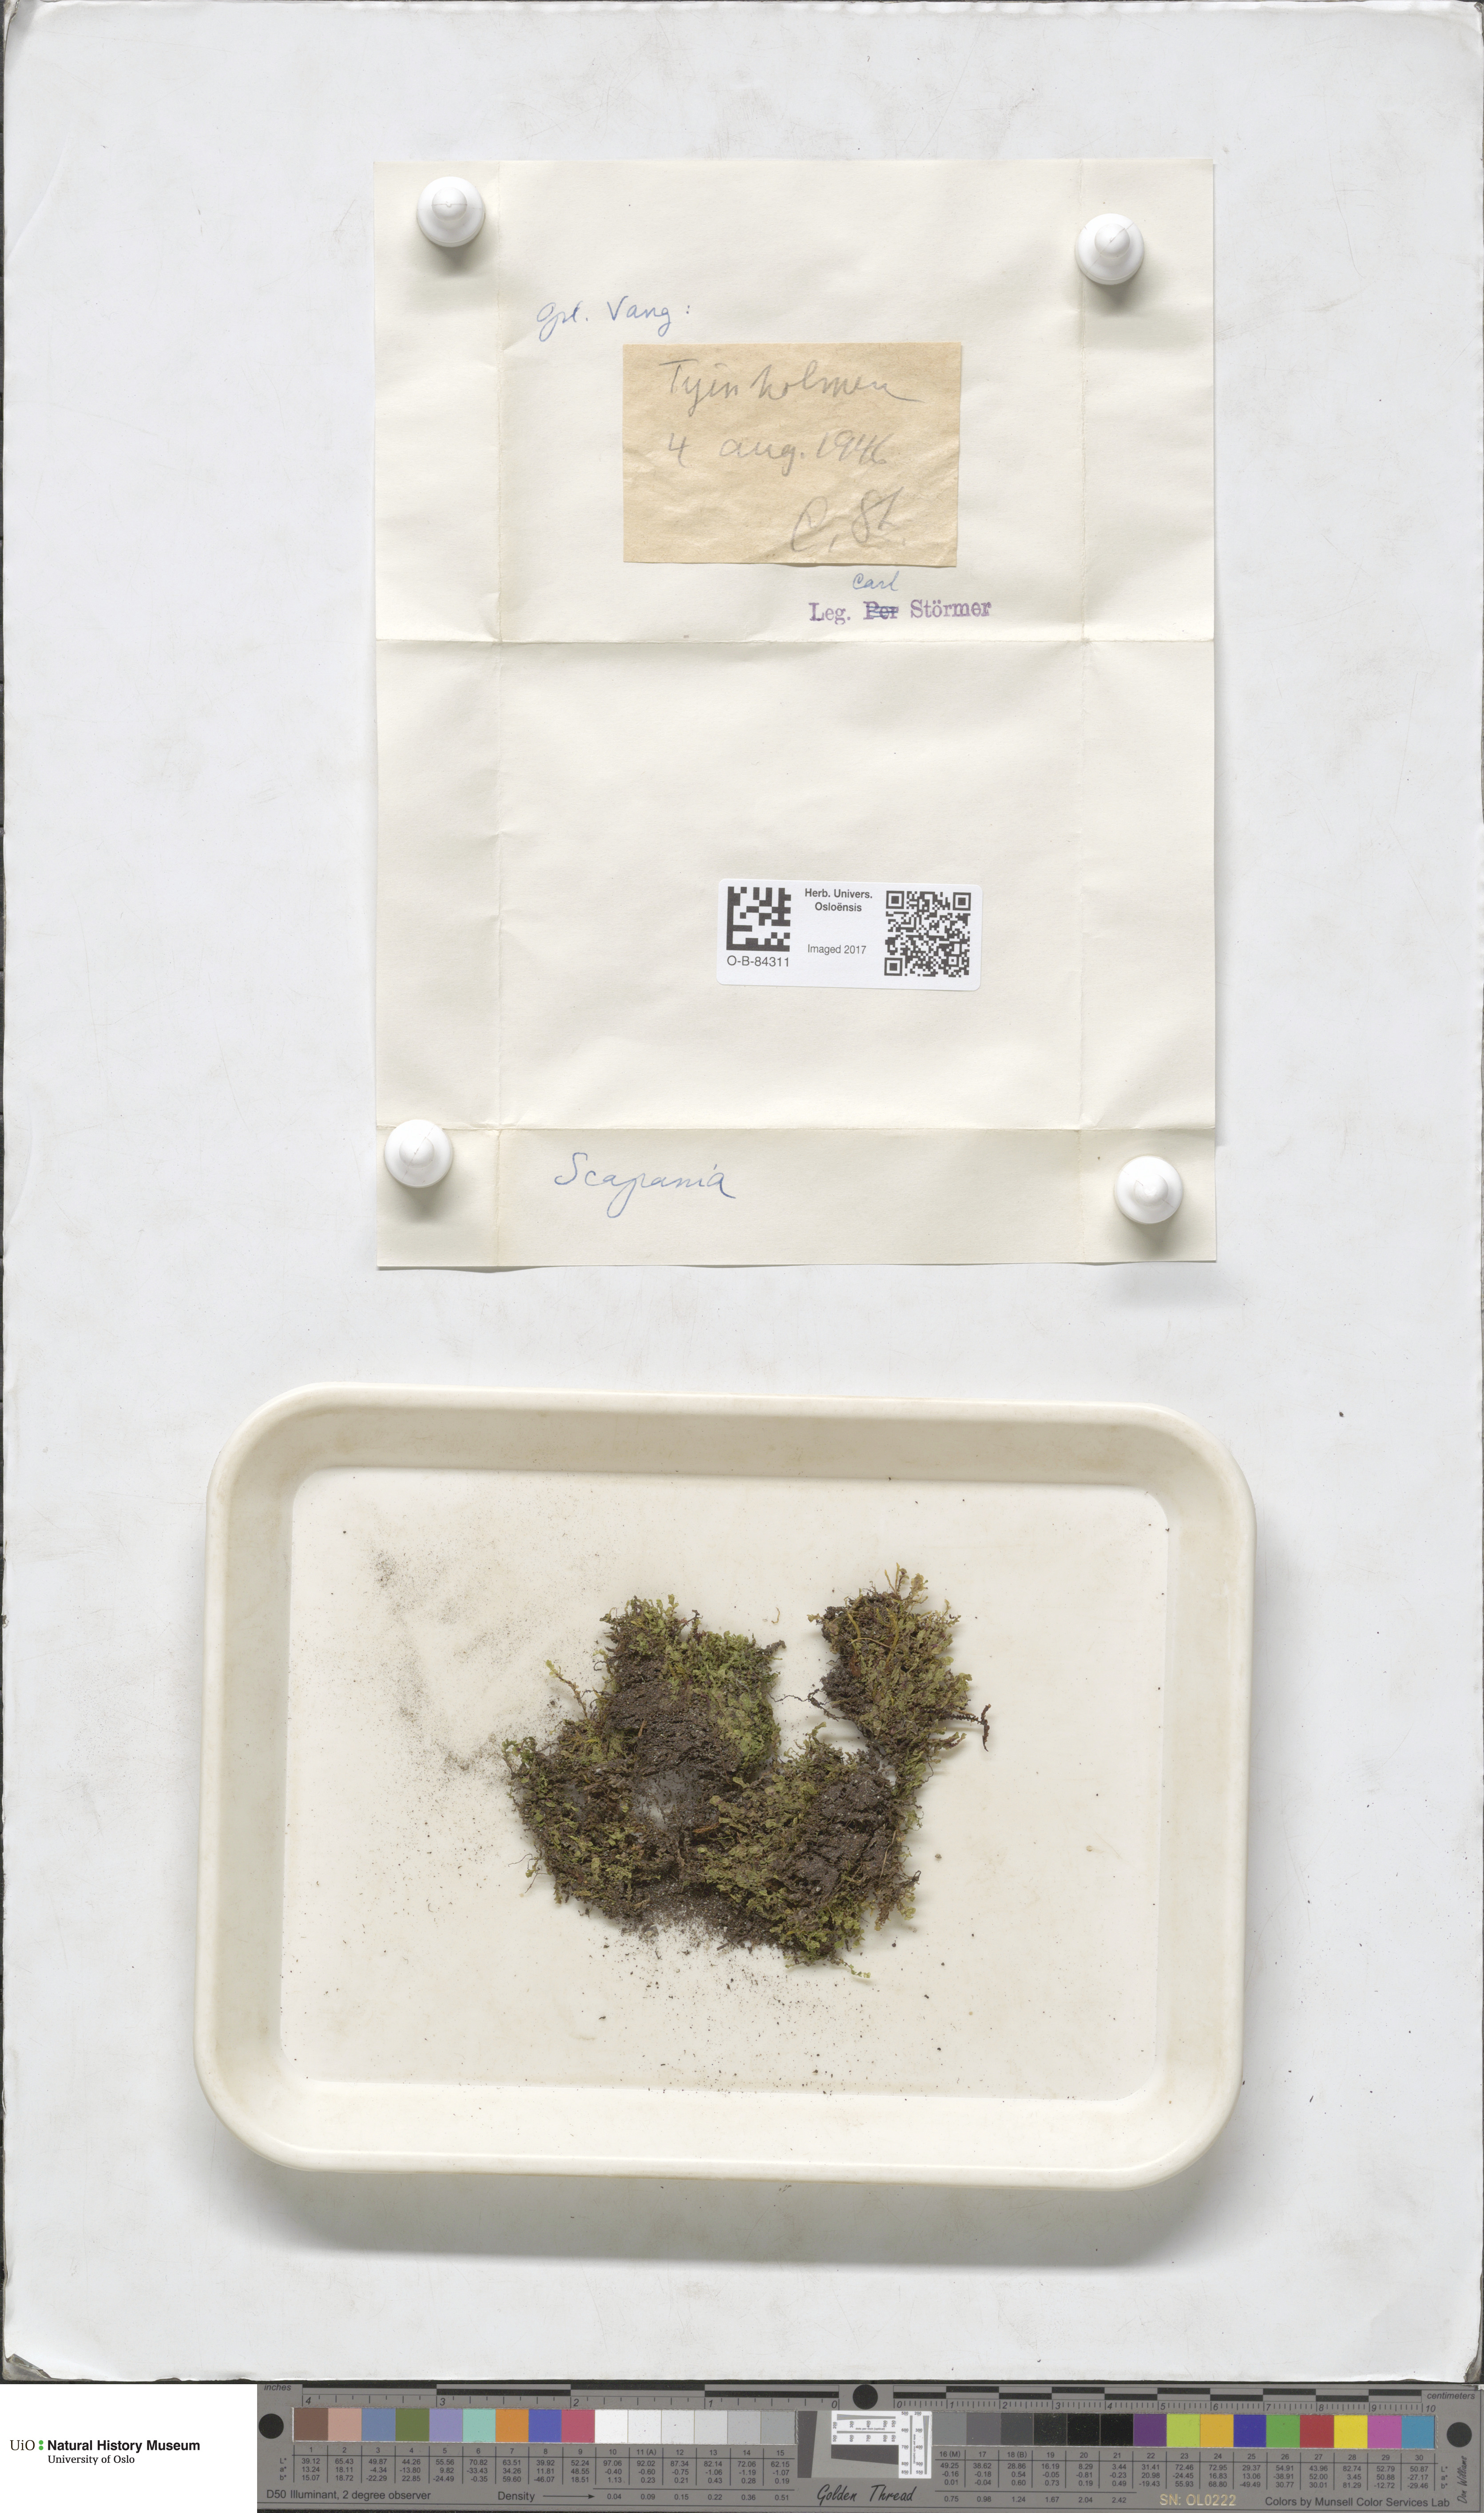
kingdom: Plantae
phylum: Marchantiophyta
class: Jungermanniopsida
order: Jungermanniales
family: Scapaniaceae
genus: Scapania
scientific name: Scapania
